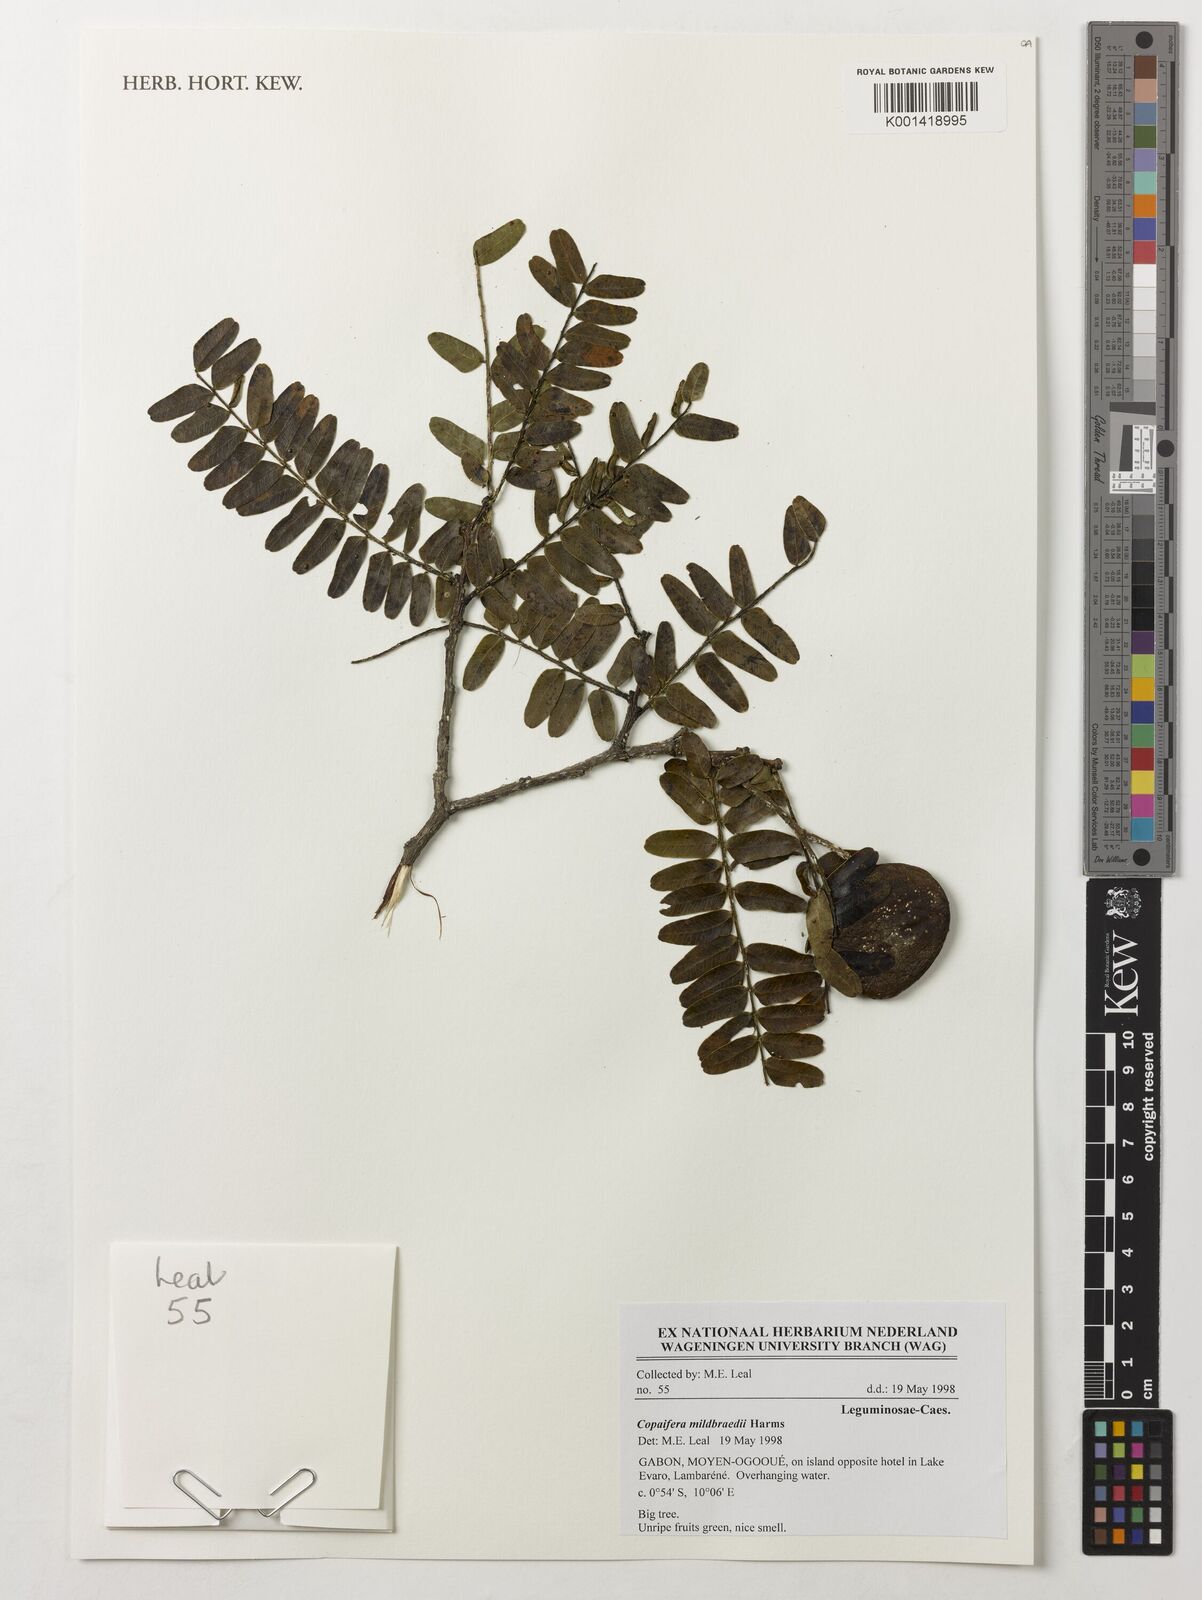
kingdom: Plantae
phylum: Tracheophyta
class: Magnoliopsida
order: Fabales
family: Fabaceae
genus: Copaifera
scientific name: Copaifera mildbraedii
